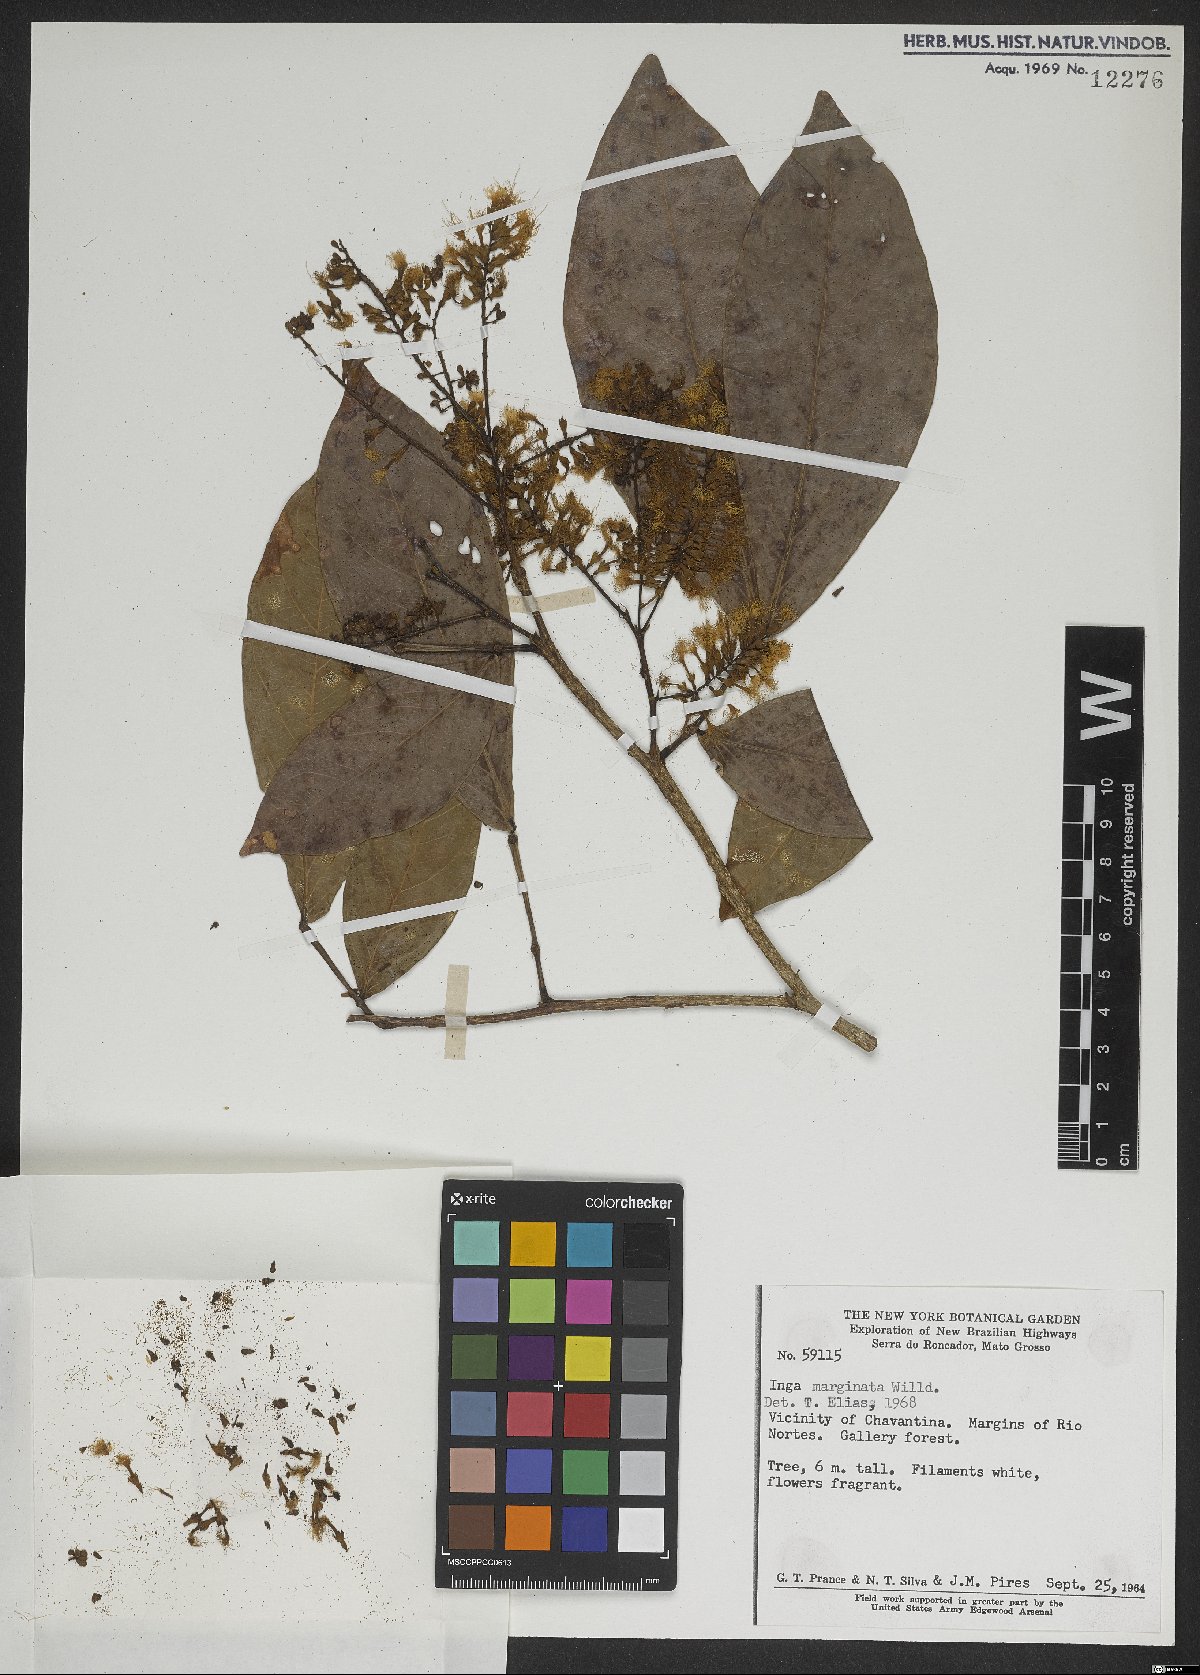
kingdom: Plantae
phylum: Tracheophyta
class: Magnoliopsida
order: Fabales
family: Fabaceae
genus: Inga
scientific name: Inga marginata
